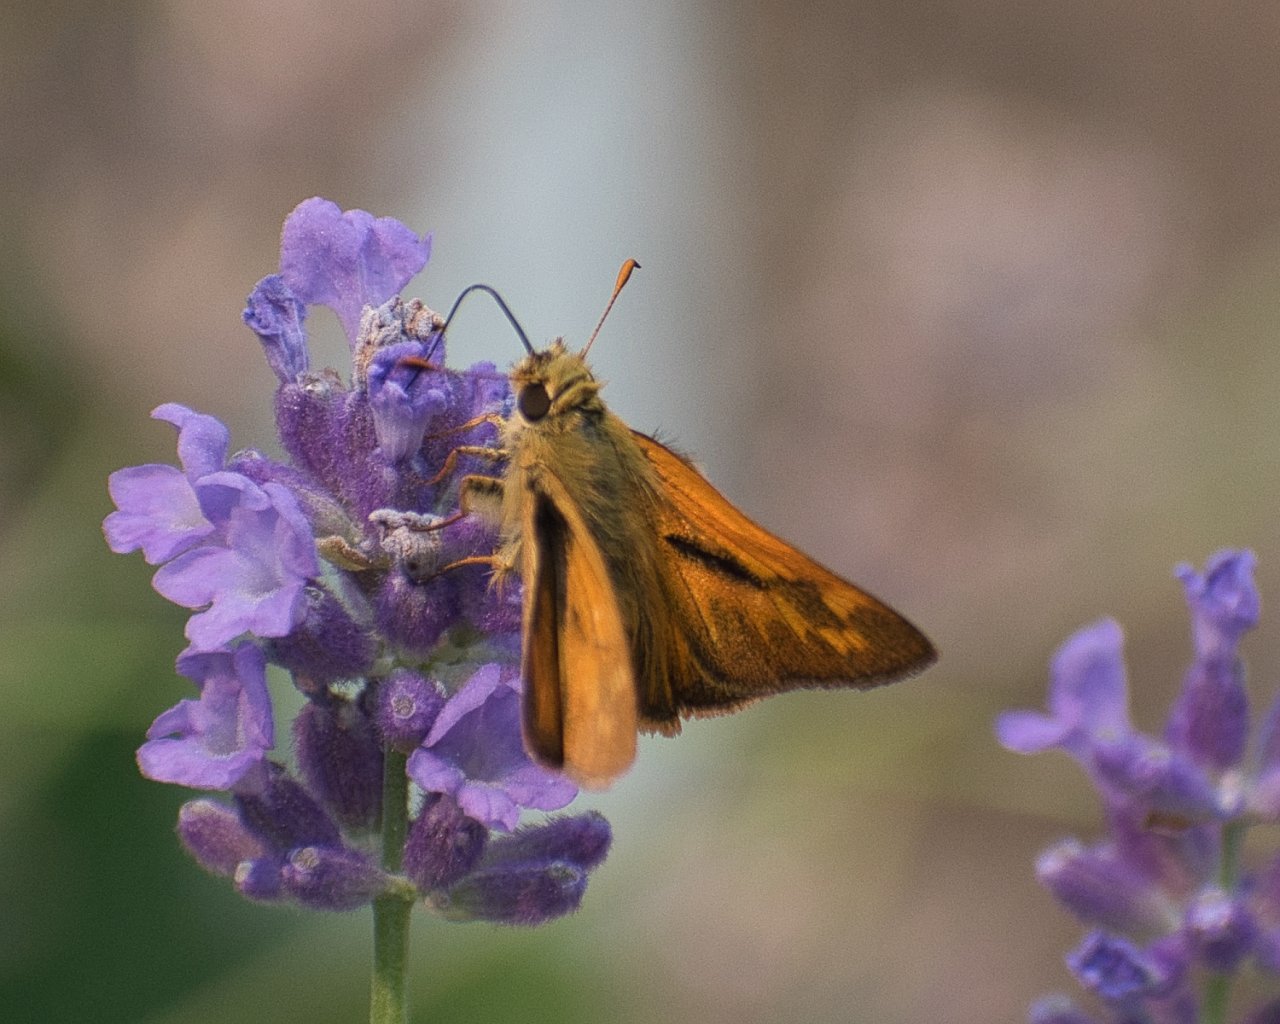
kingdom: Animalia
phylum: Arthropoda
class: Insecta
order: Lepidoptera
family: Hesperiidae
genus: Ochlodes
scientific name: Ochlodes sylvanoides
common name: Woodland Skipper
